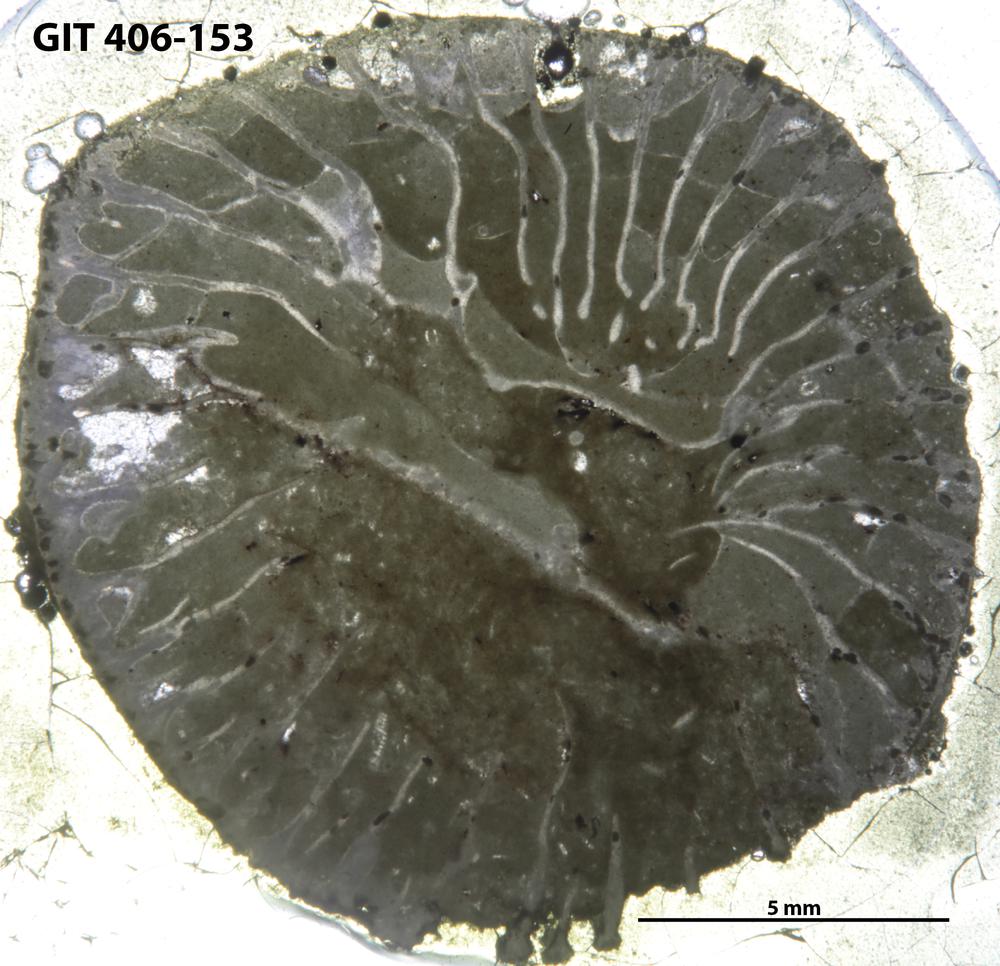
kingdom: Animalia
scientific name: Animalia
